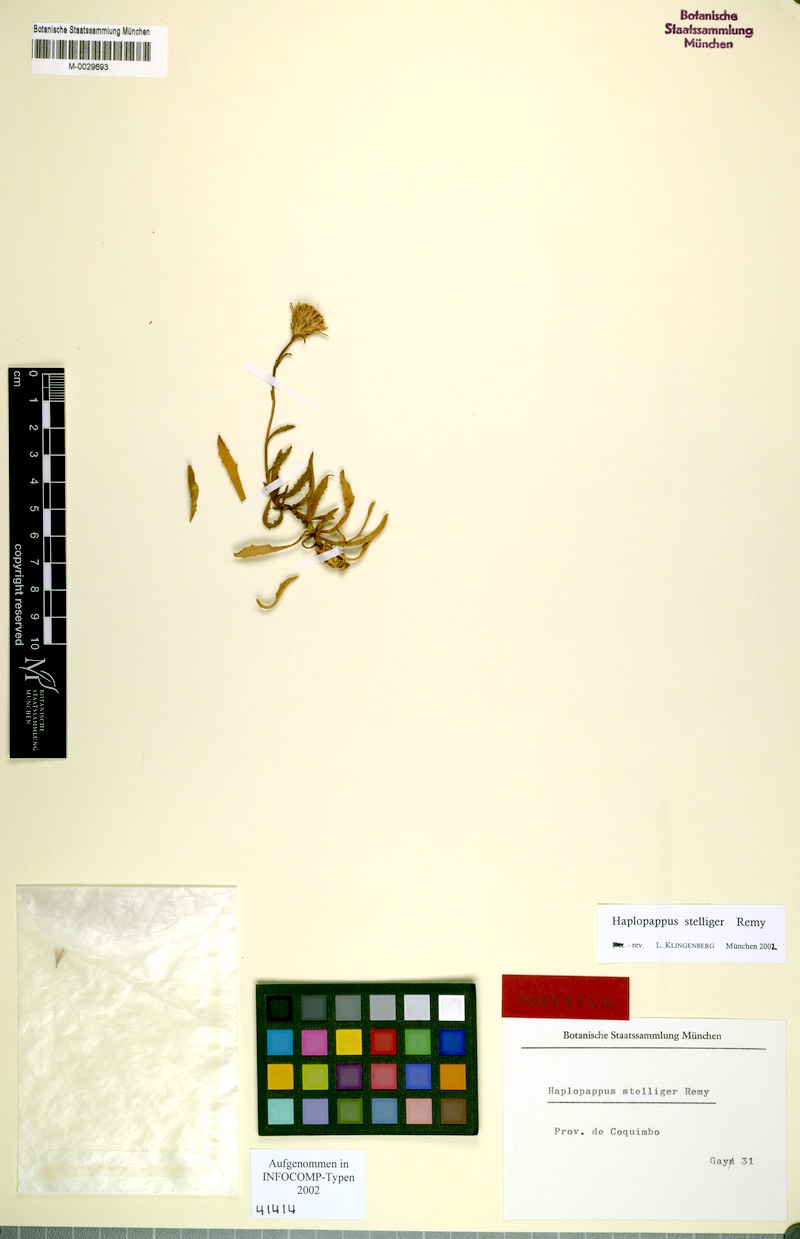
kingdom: Plantae
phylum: Tracheophyta
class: Magnoliopsida
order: Asterales
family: Asteraceae
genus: Haplopappus
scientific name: Haplopappus stelliger
